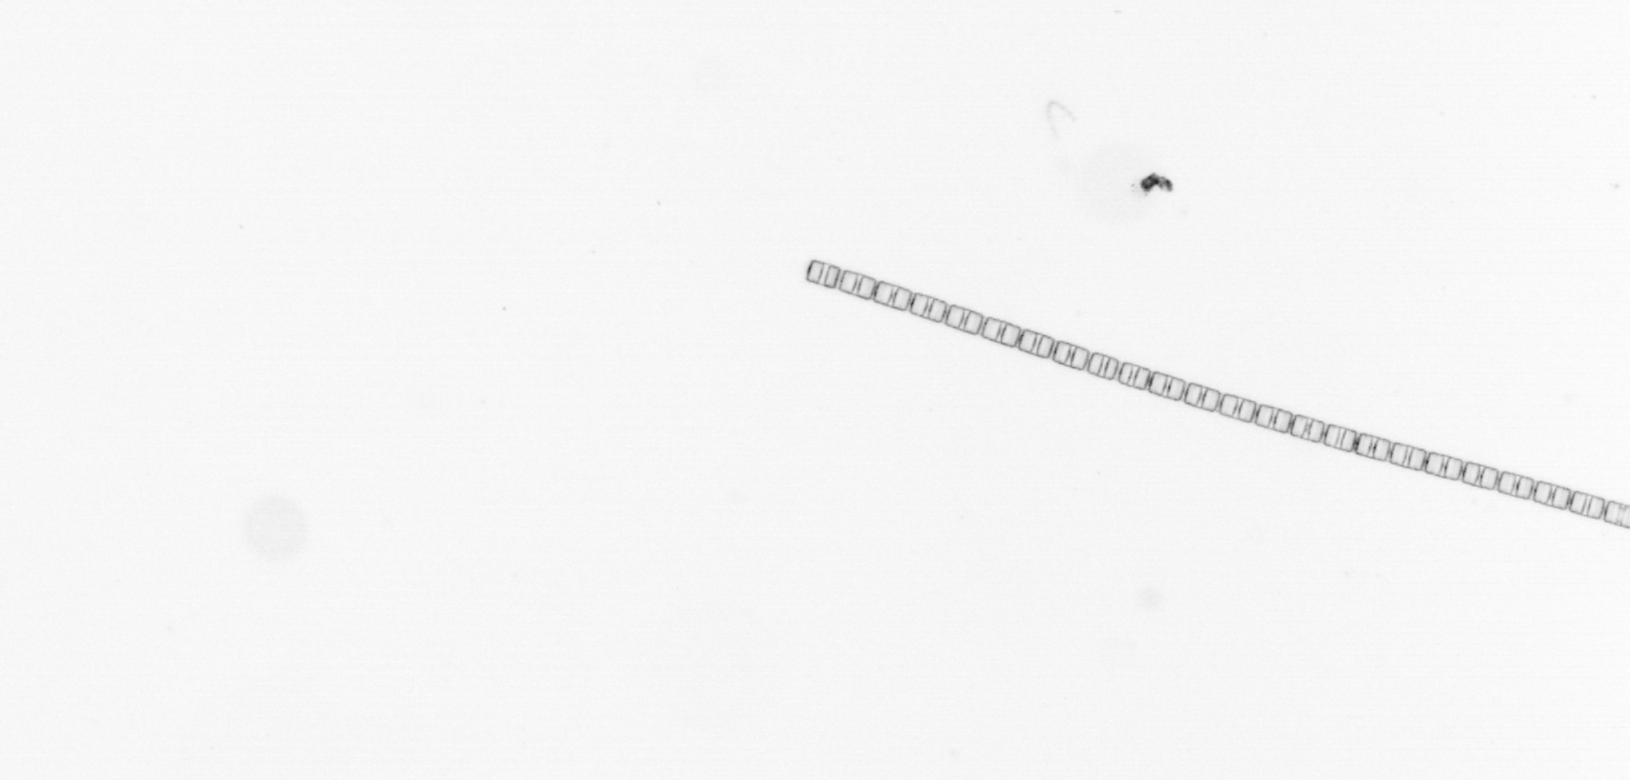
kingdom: Chromista
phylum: Ochrophyta
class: Bacillariophyceae
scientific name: Bacillariophyceae
